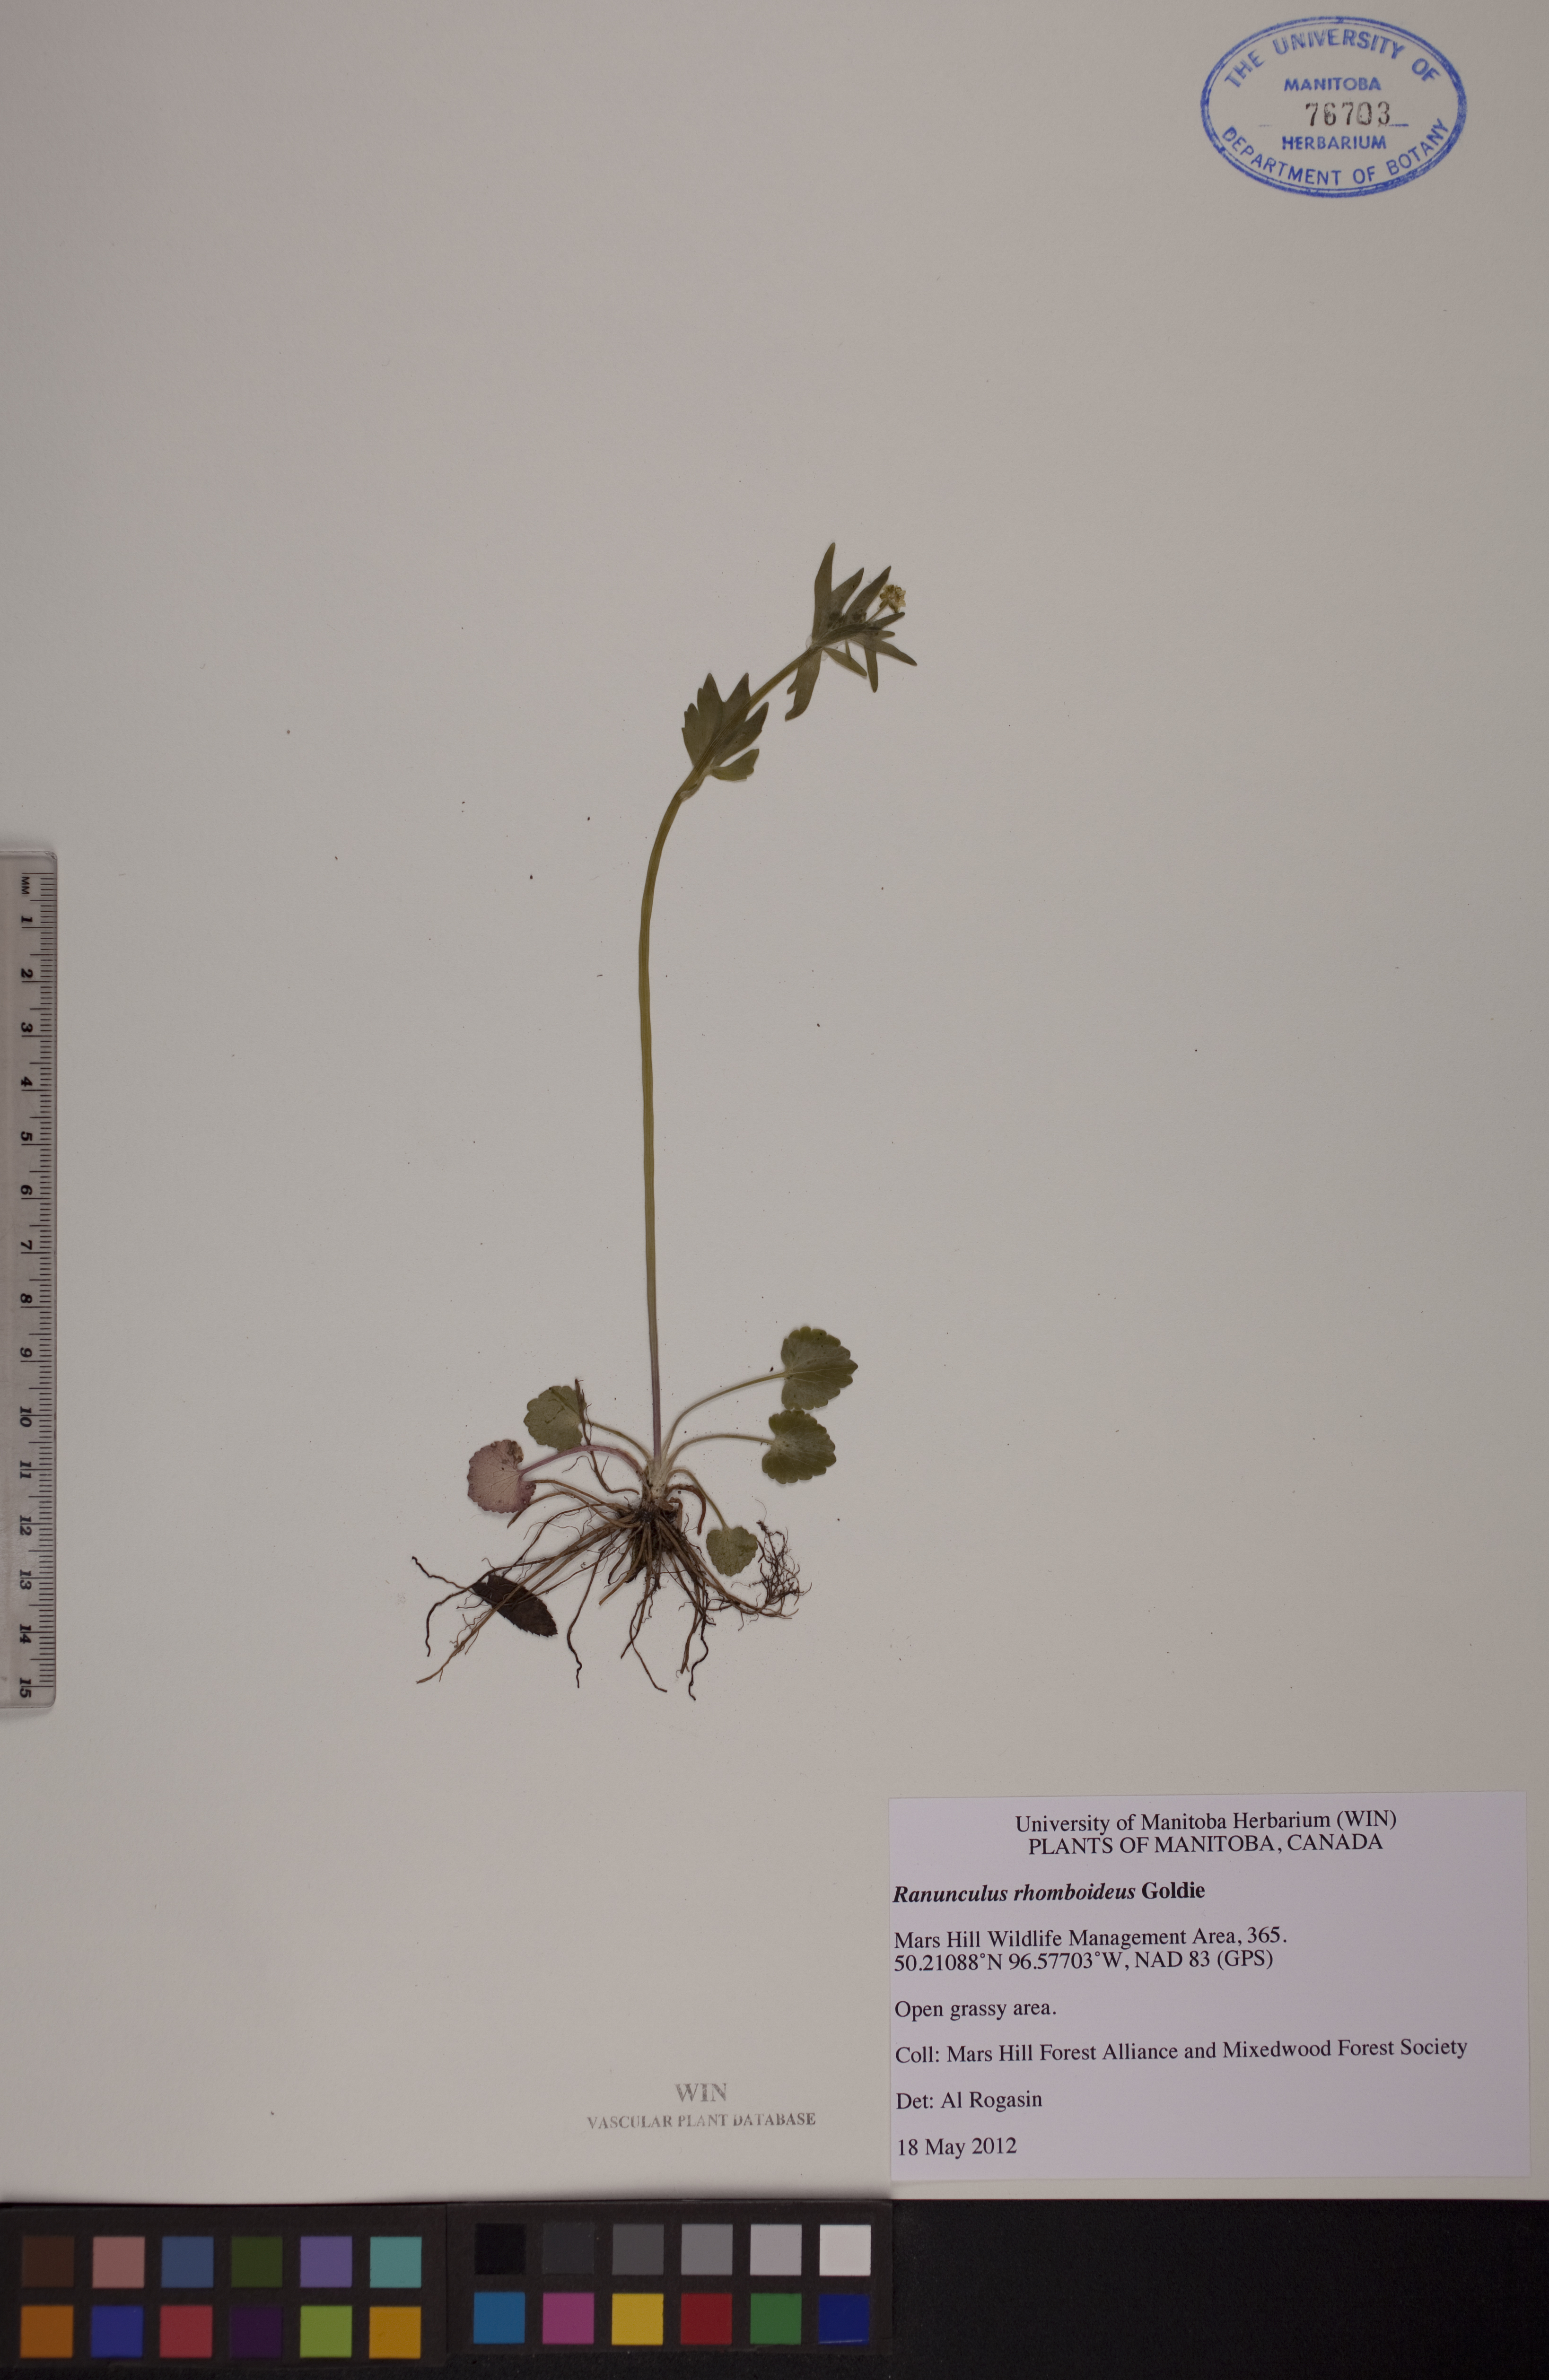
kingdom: Plantae
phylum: Tracheophyta
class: Magnoliopsida
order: Ranunculales
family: Ranunculaceae
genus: Ranunculus
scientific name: Ranunculus rhomboideus
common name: Prairie buttercup
